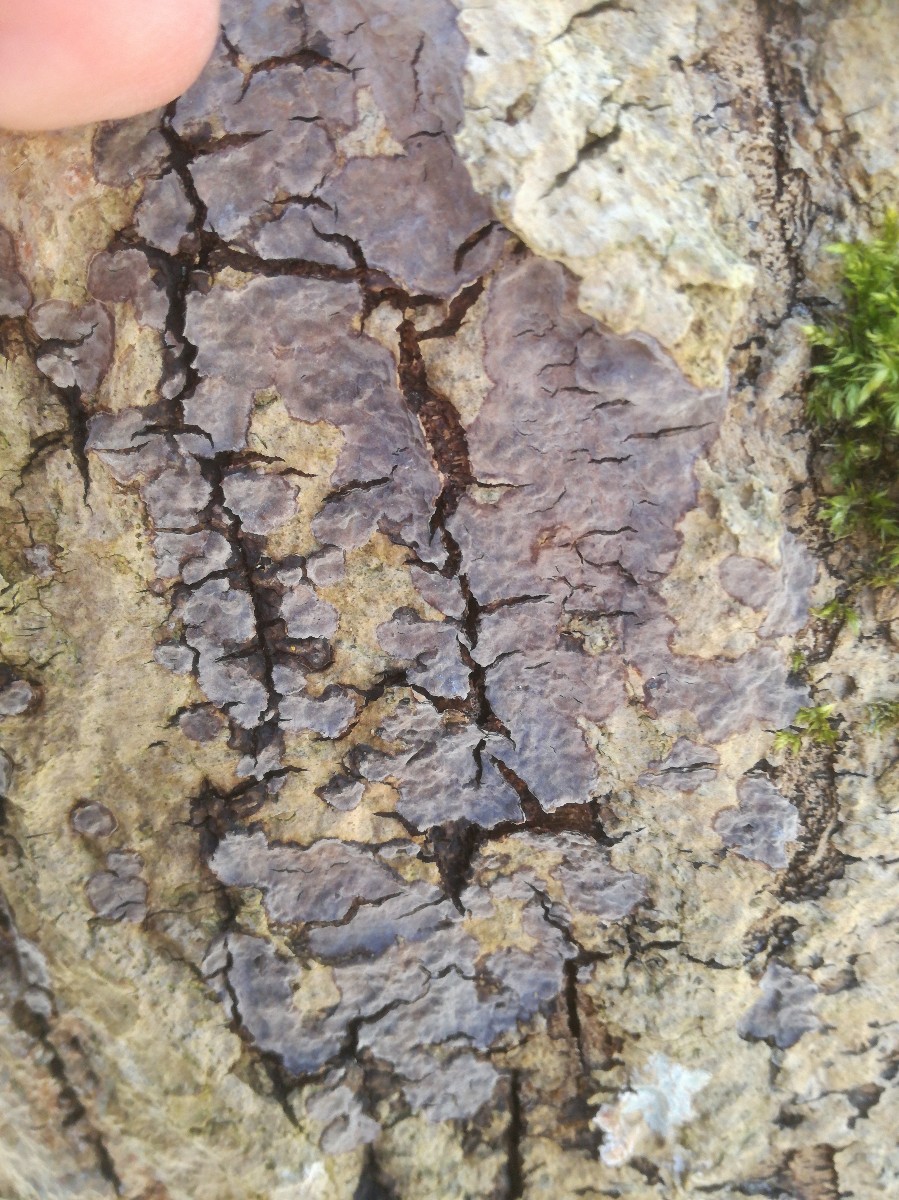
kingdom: Fungi
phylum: Basidiomycota
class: Agaricomycetes
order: Russulales
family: Peniophoraceae
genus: Peniophora
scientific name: Peniophora limitata
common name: mørkrandet voksskind
